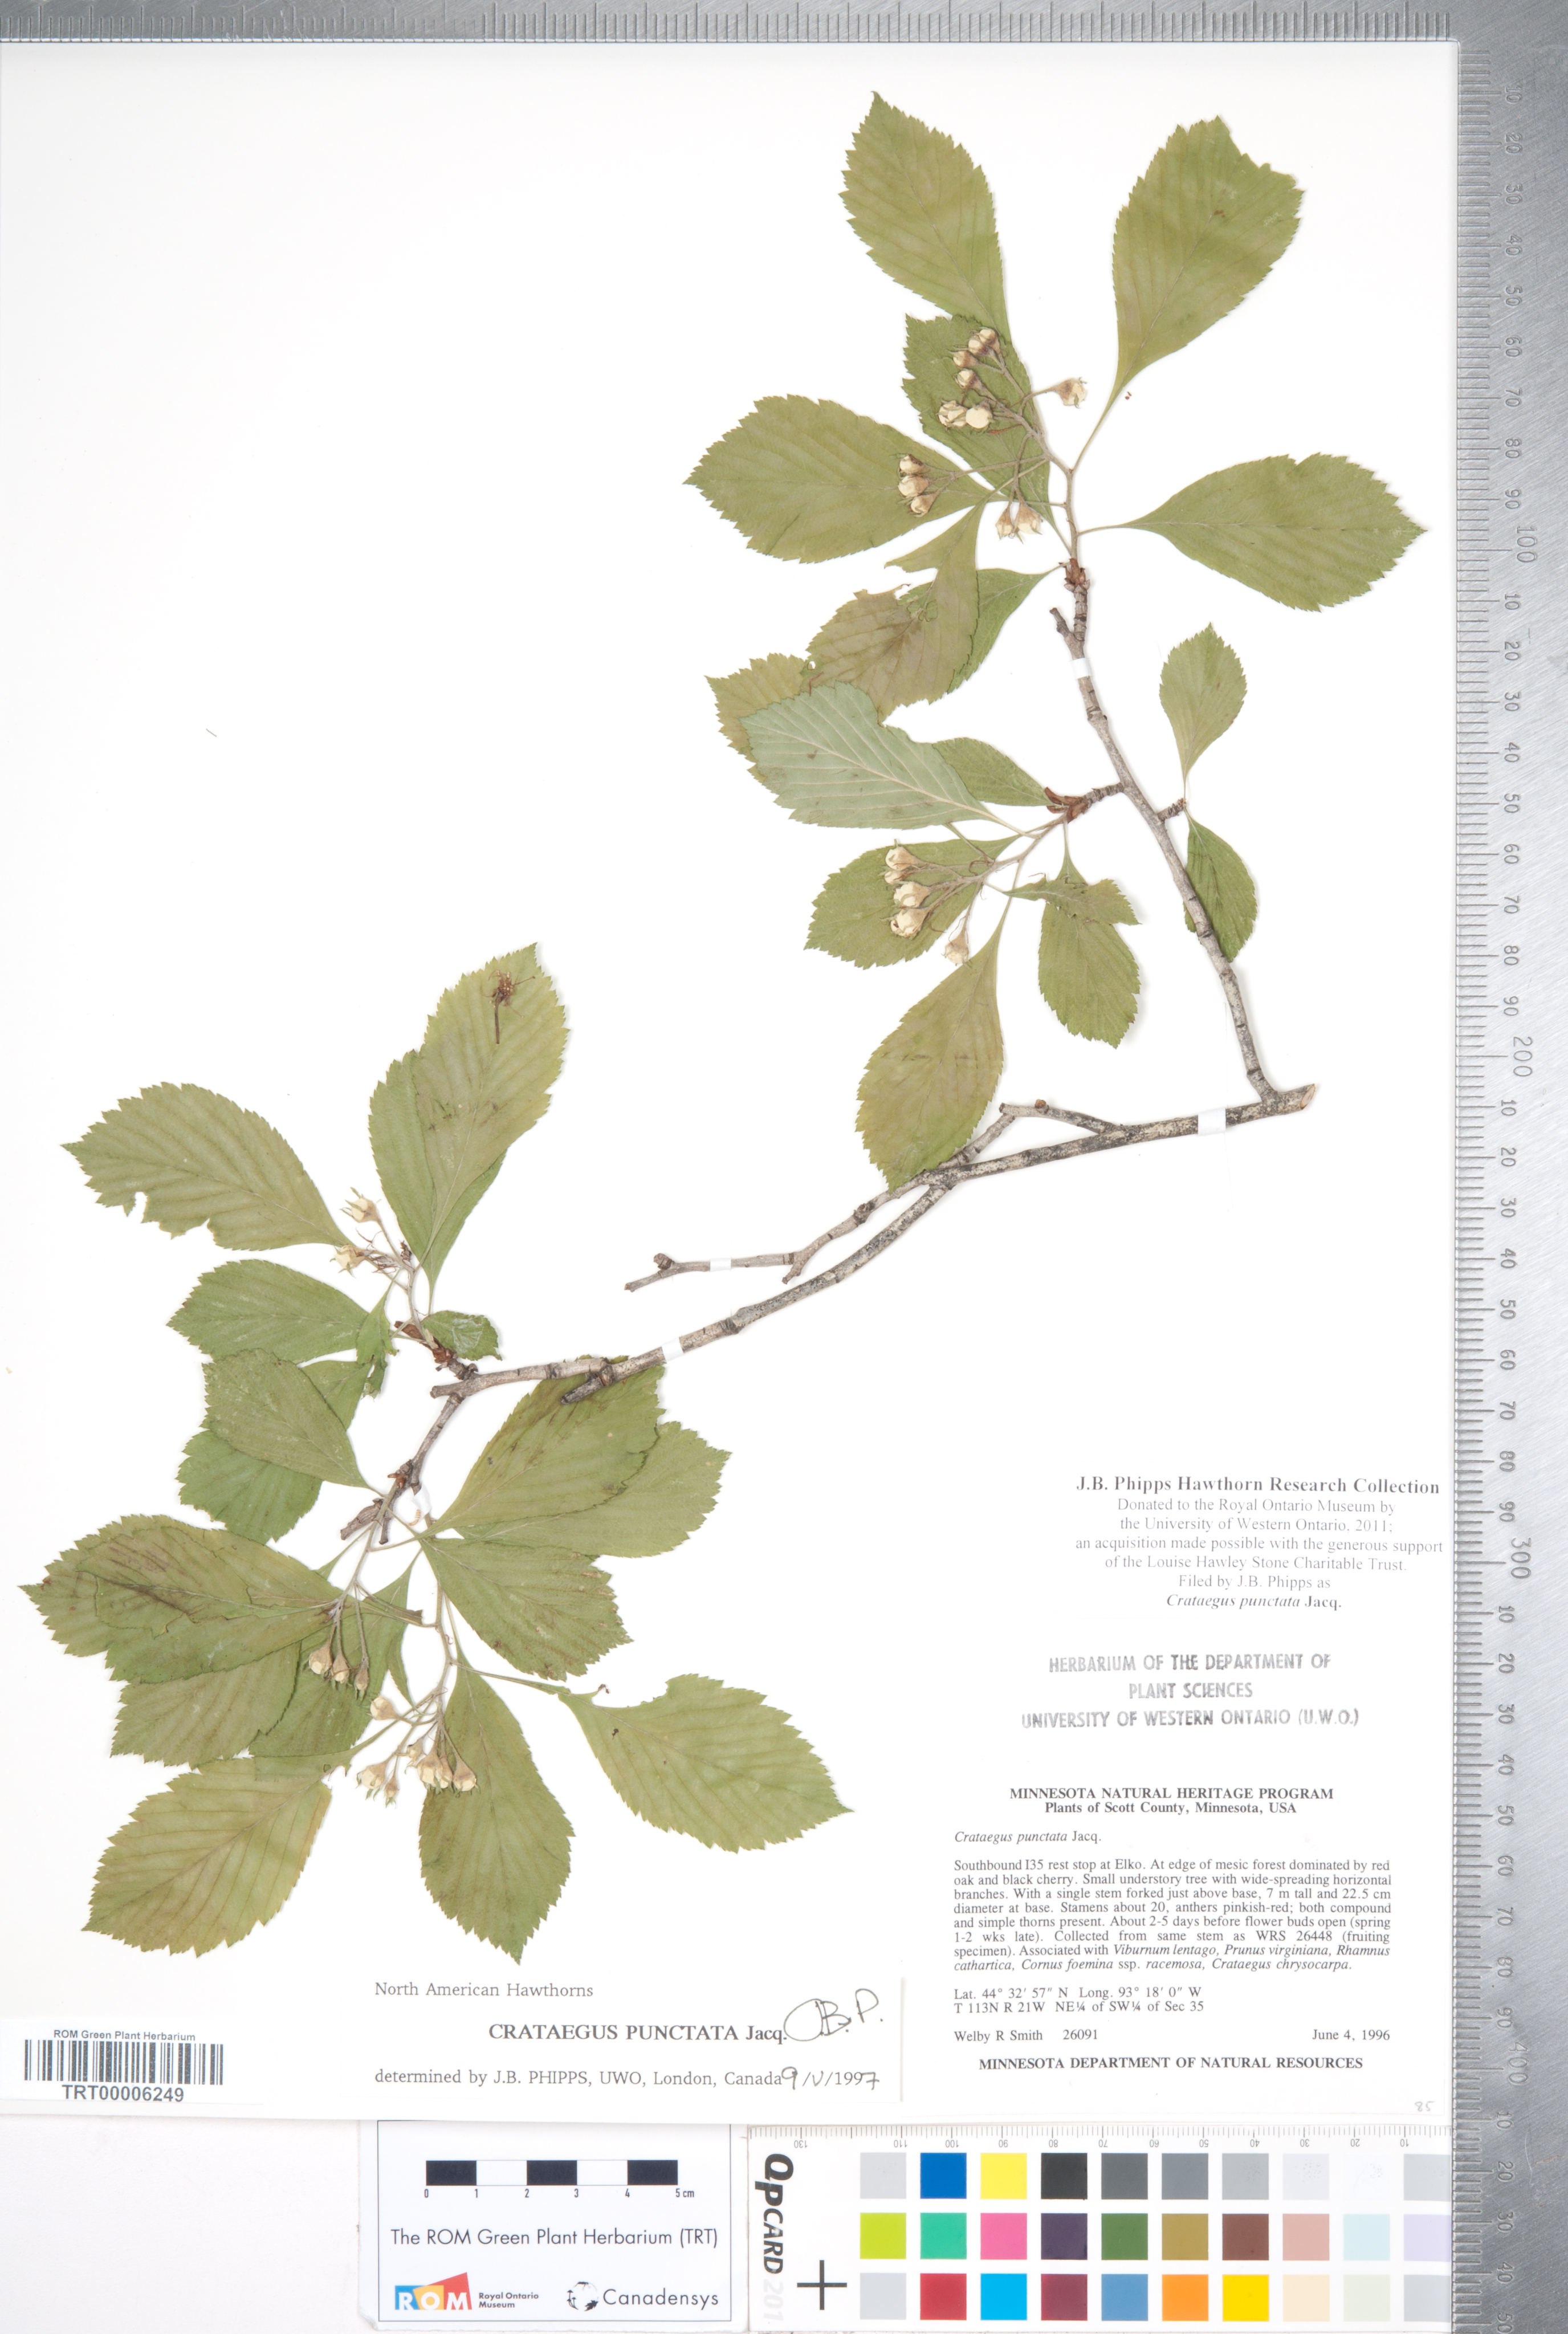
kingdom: Plantae
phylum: Tracheophyta
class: Magnoliopsida
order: Rosales
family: Rosaceae
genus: Crataegus
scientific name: Crataegus punctata
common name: Dotted hawthorn
